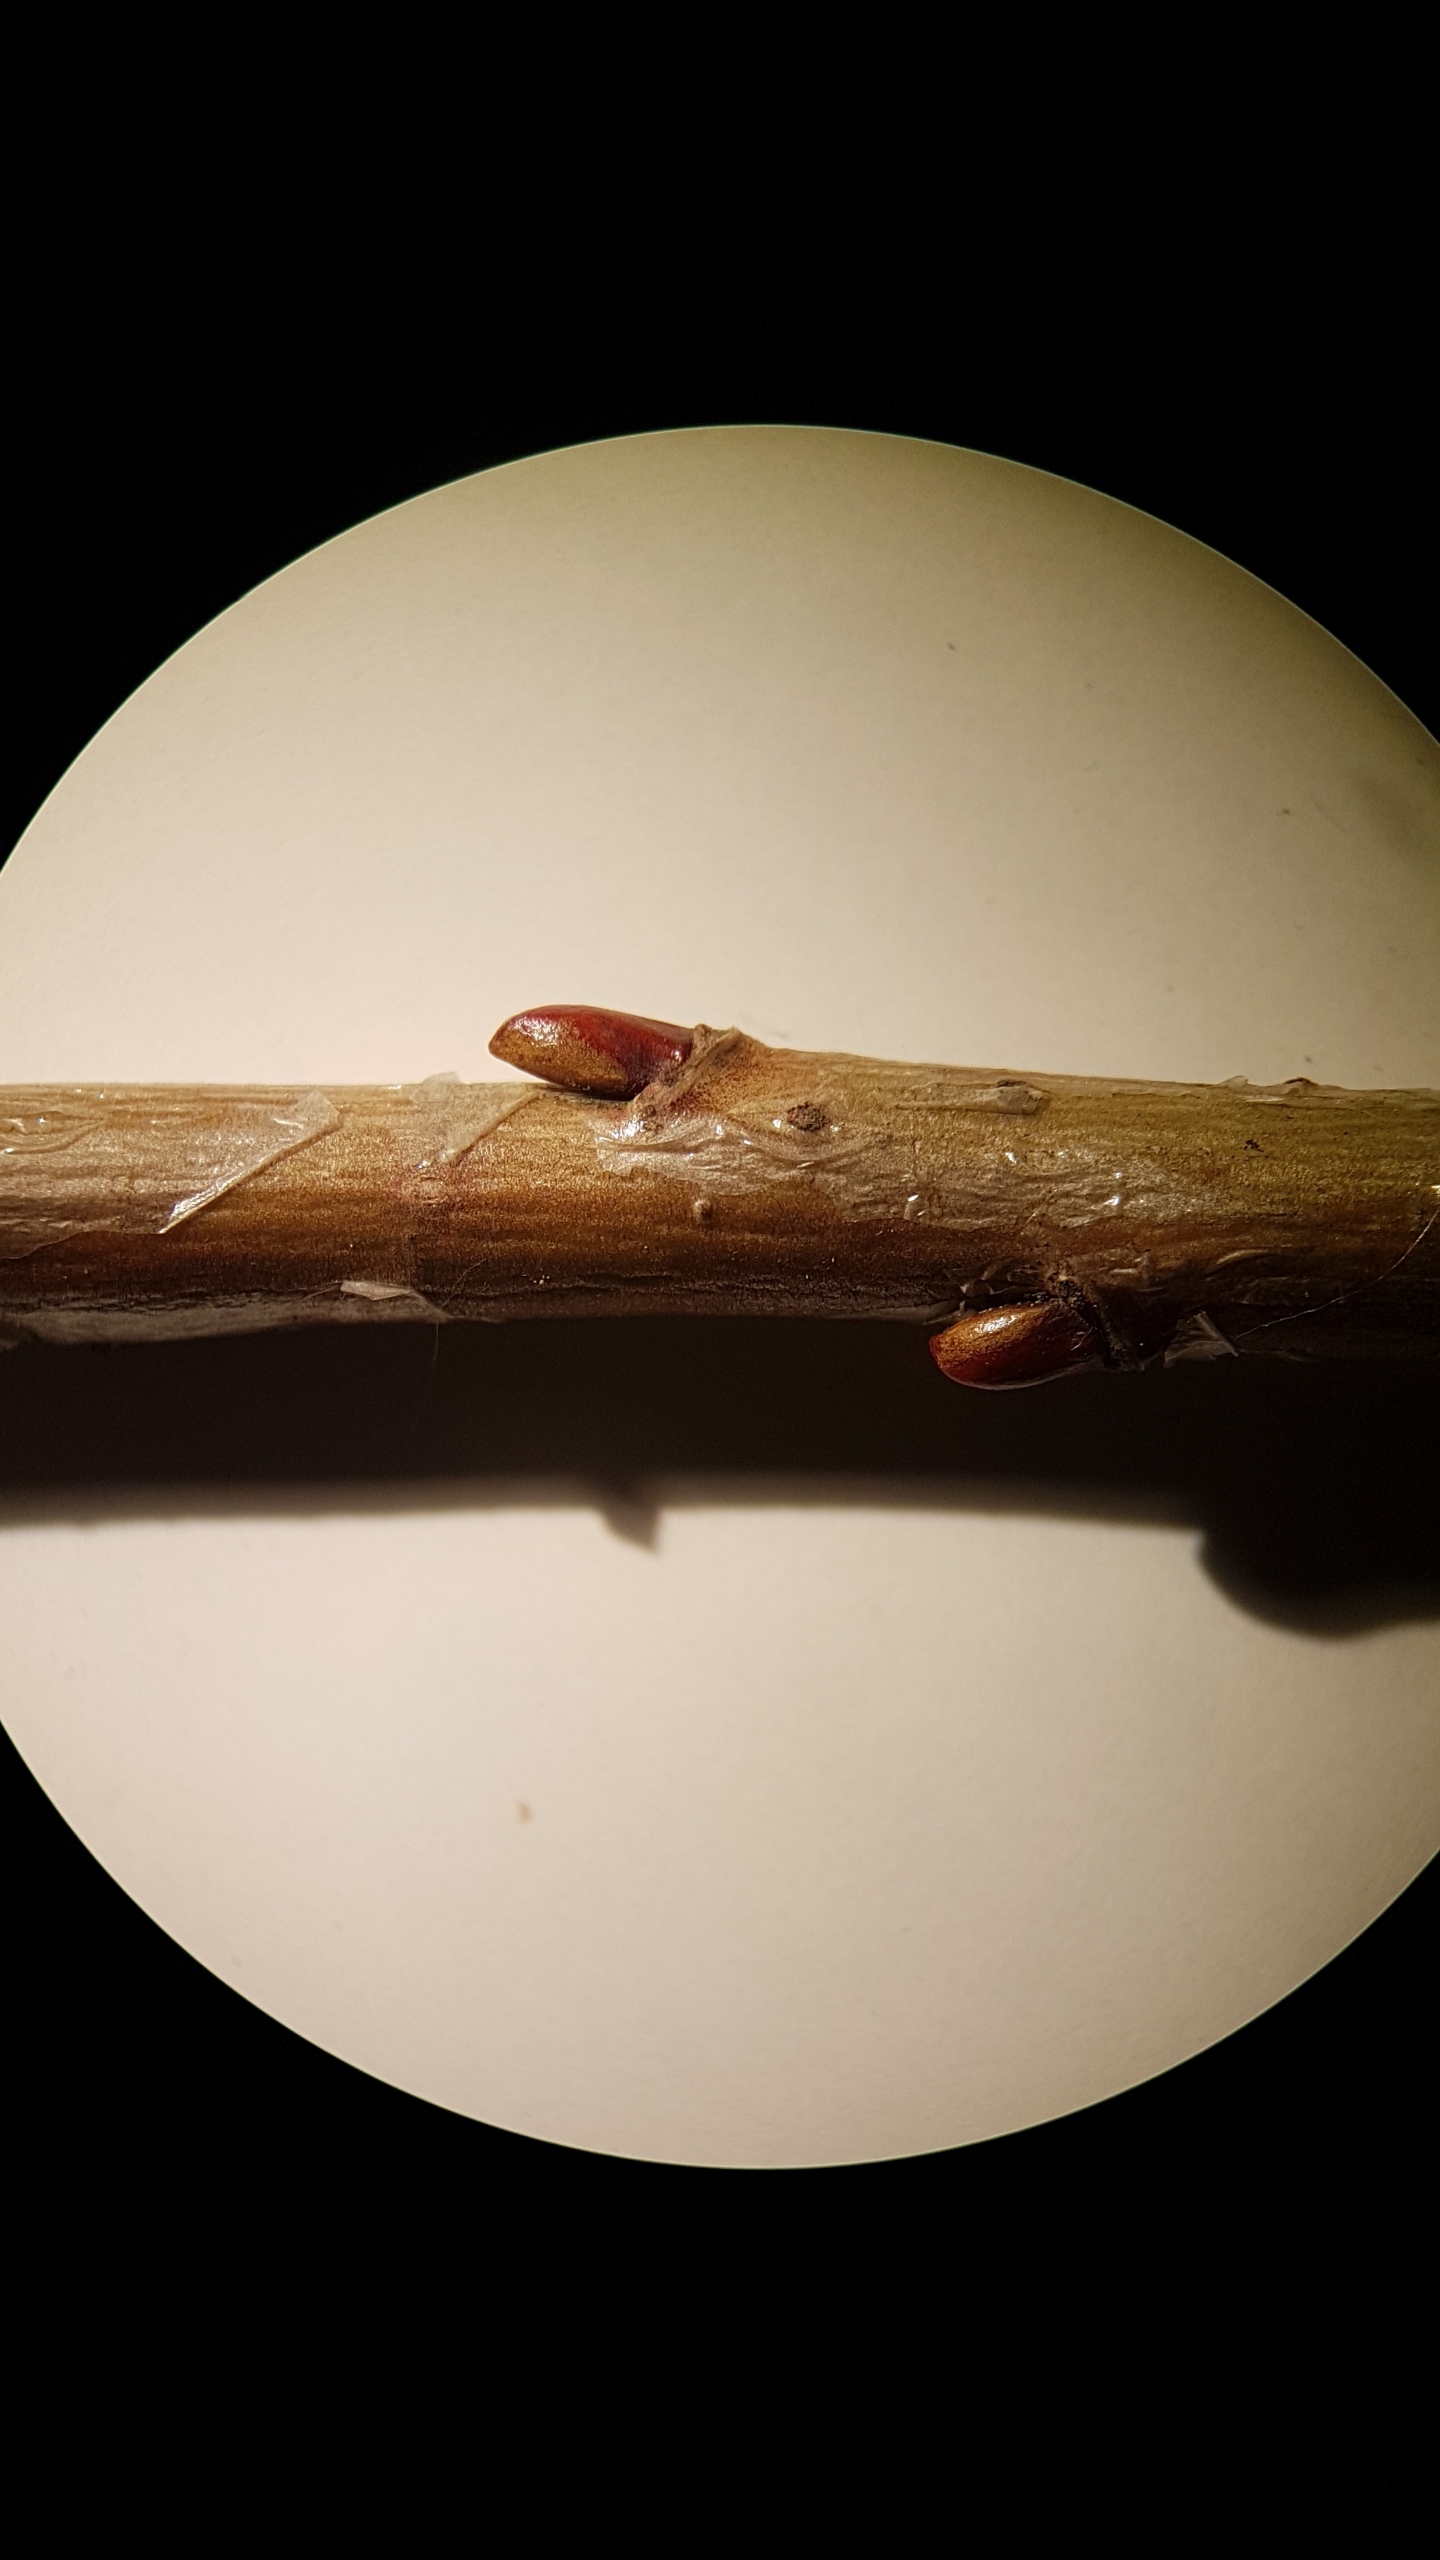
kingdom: Plantae
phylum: Tracheophyta
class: Magnoliopsida
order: Malpighiales
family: Salicaceae
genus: Salix
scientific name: Salix pentandra
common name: Femhannet pil
